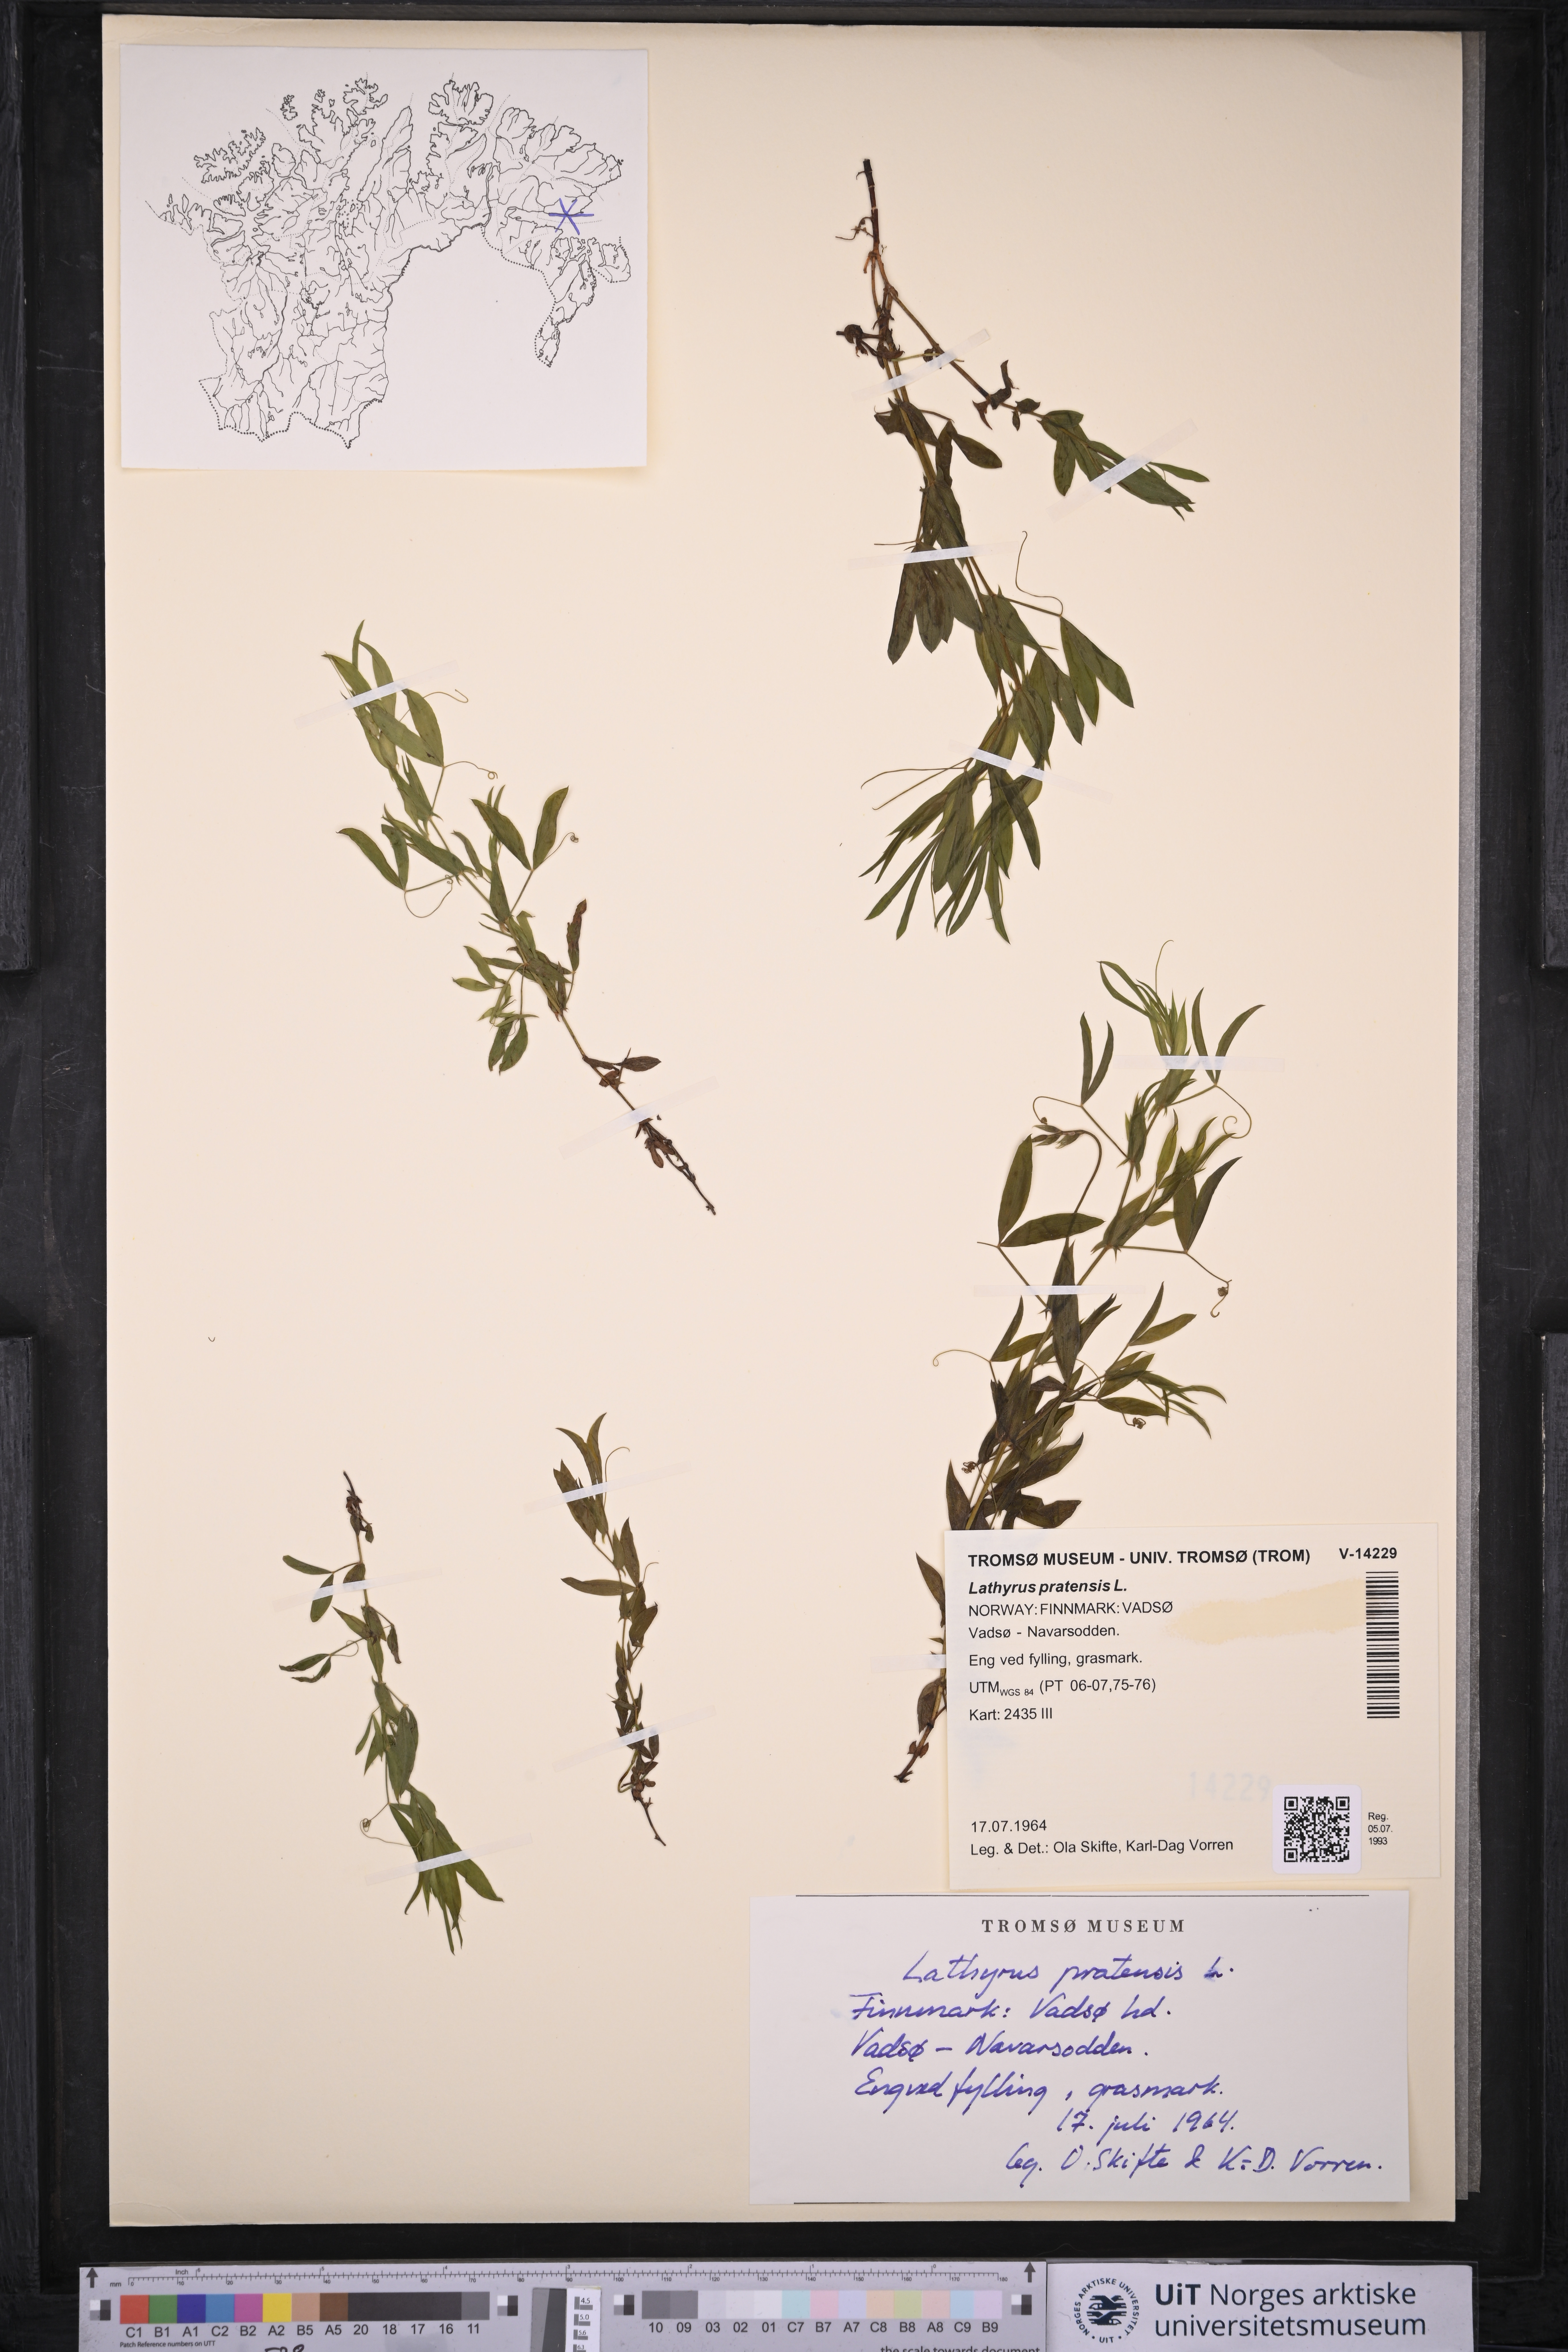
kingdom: Plantae
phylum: Tracheophyta
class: Magnoliopsida
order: Fabales
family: Fabaceae
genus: Lathyrus
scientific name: Lathyrus pratensis
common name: Meadow vetchling
